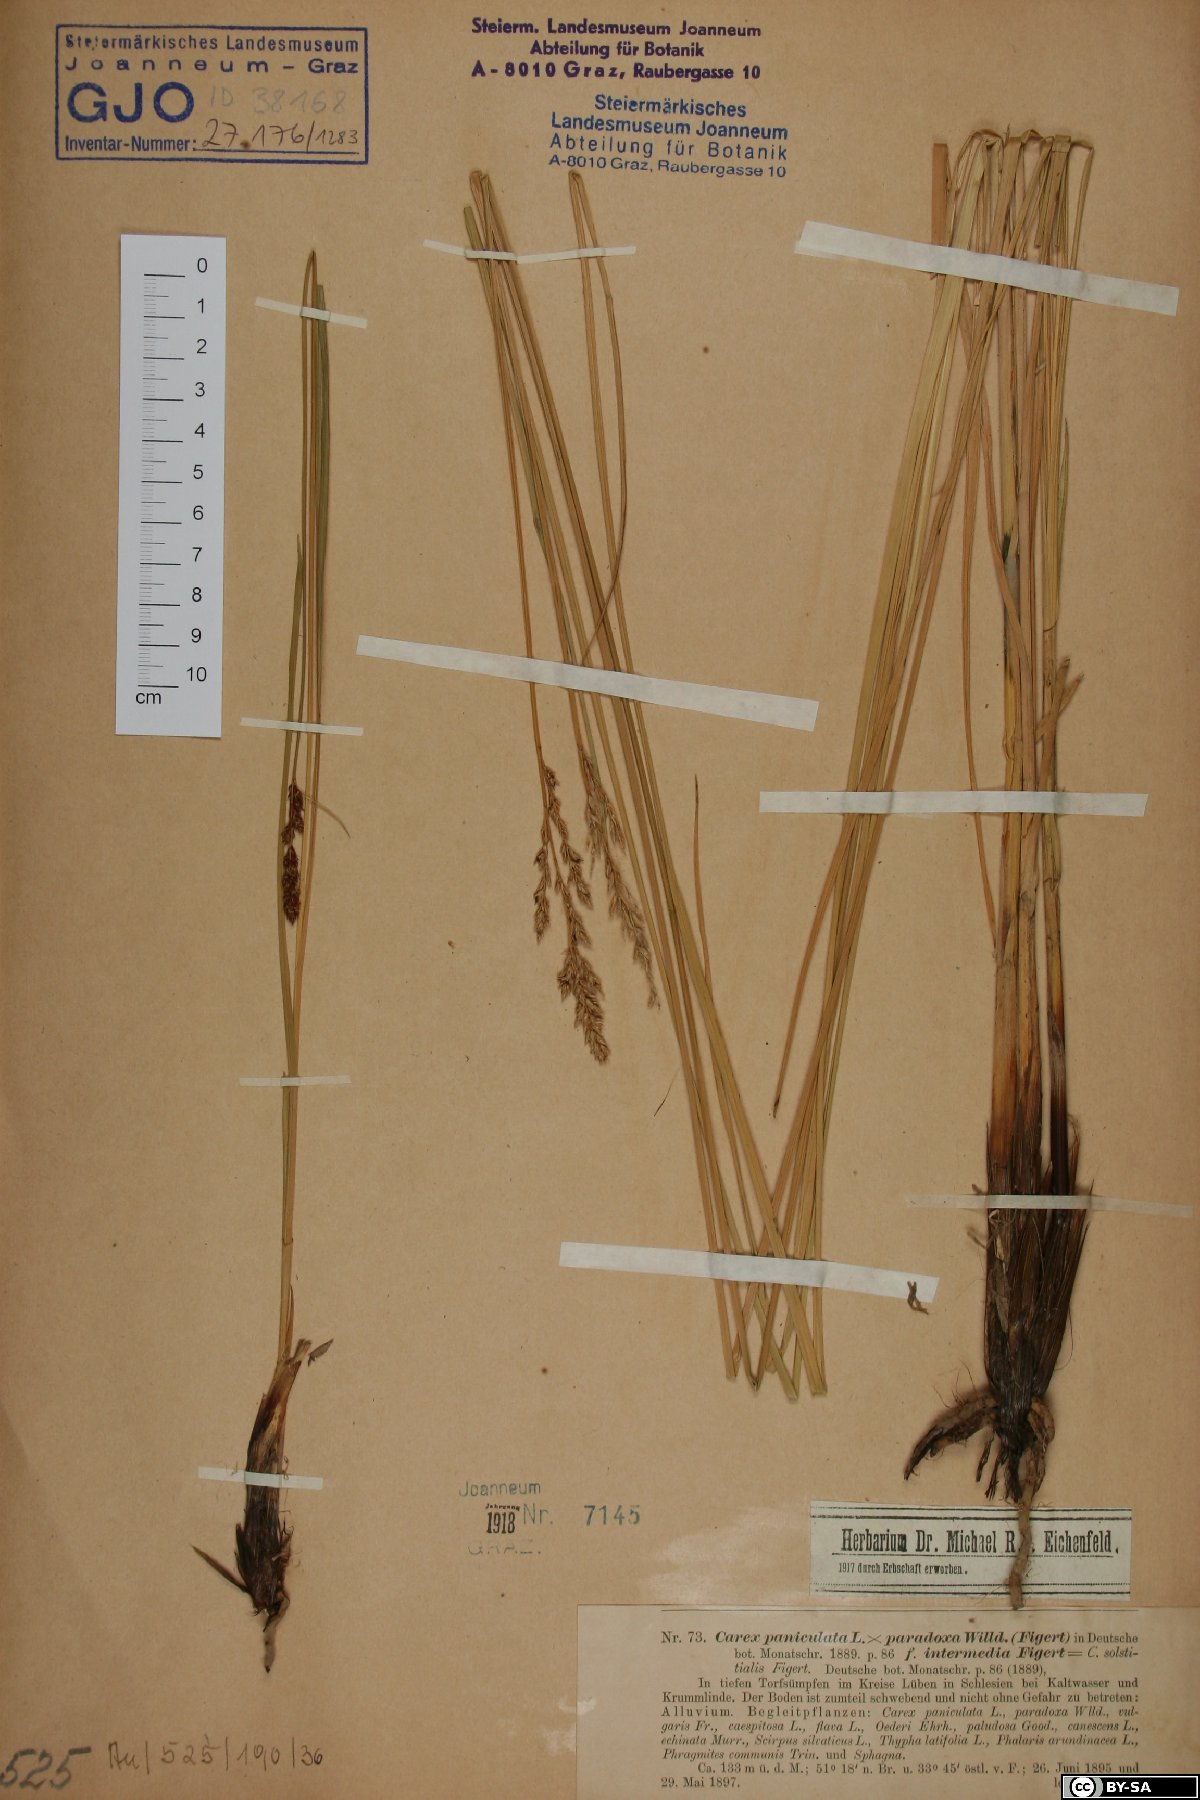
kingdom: Plantae
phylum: Tracheophyta
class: Liliopsida
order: Poales
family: Cyperaceae
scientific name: Cyperaceae
